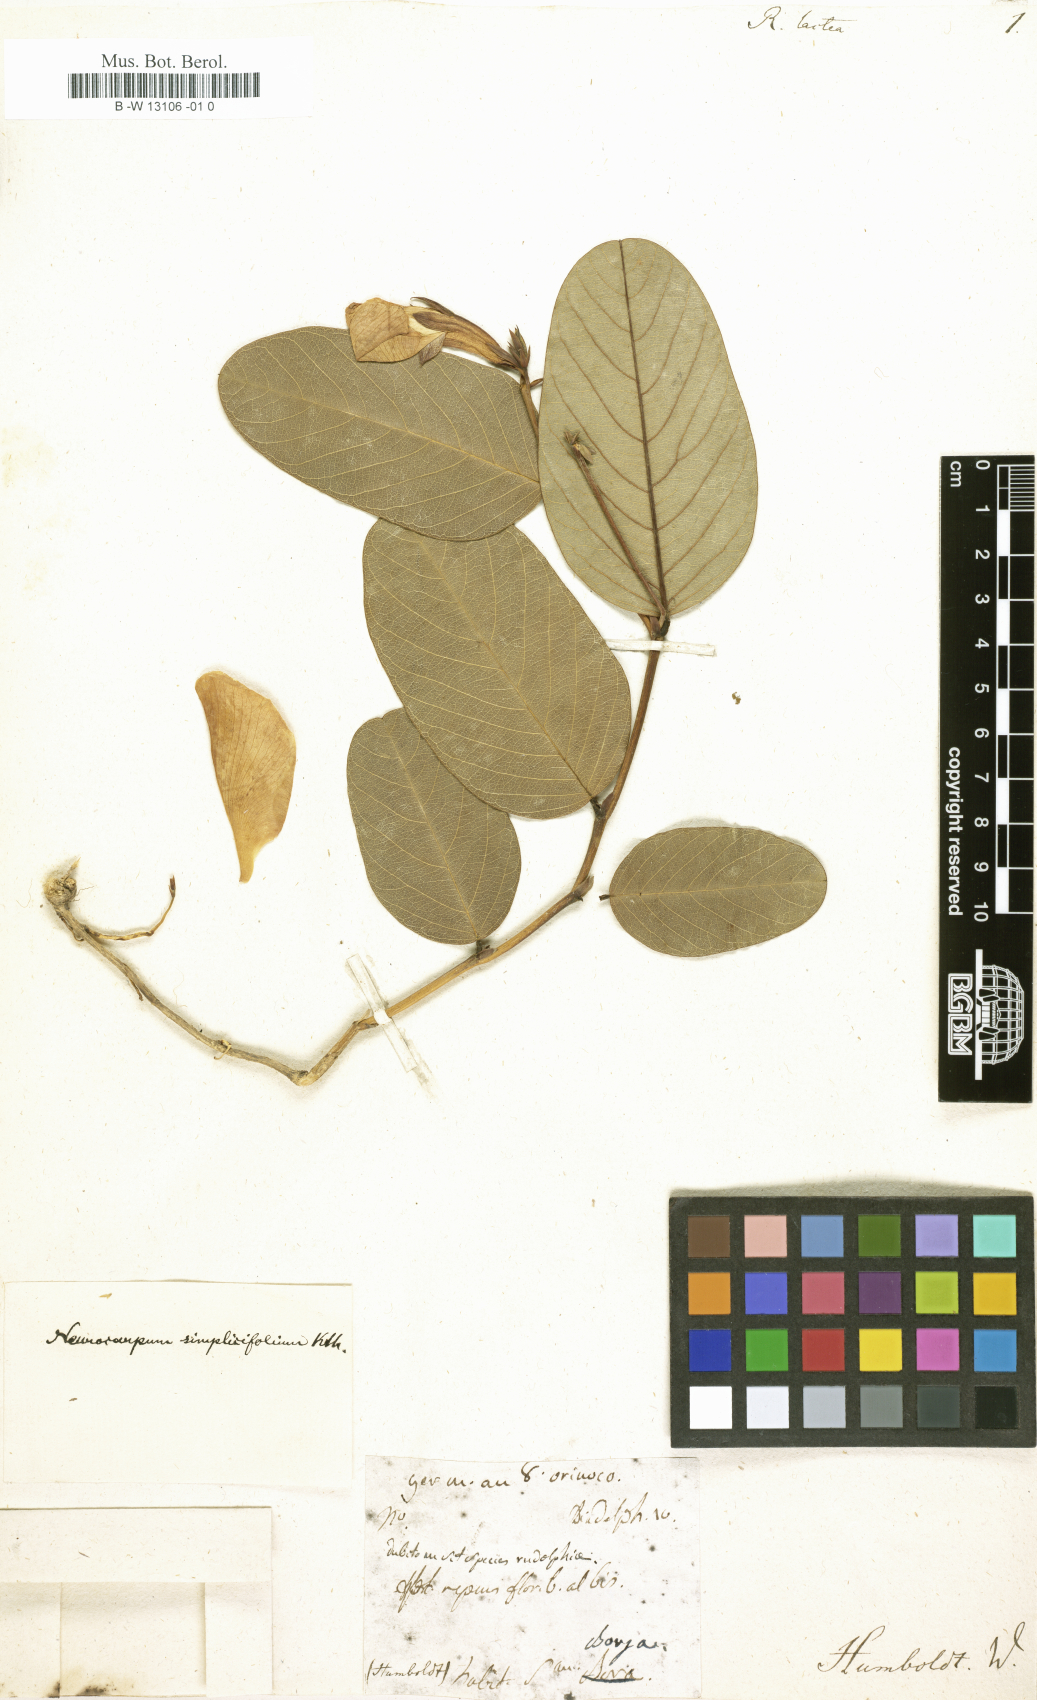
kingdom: Animalia
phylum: Arthropoda
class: Malacostraca
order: Amphipoda
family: Paraleptamphopidae
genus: Rudolphia
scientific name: Rudolphia
